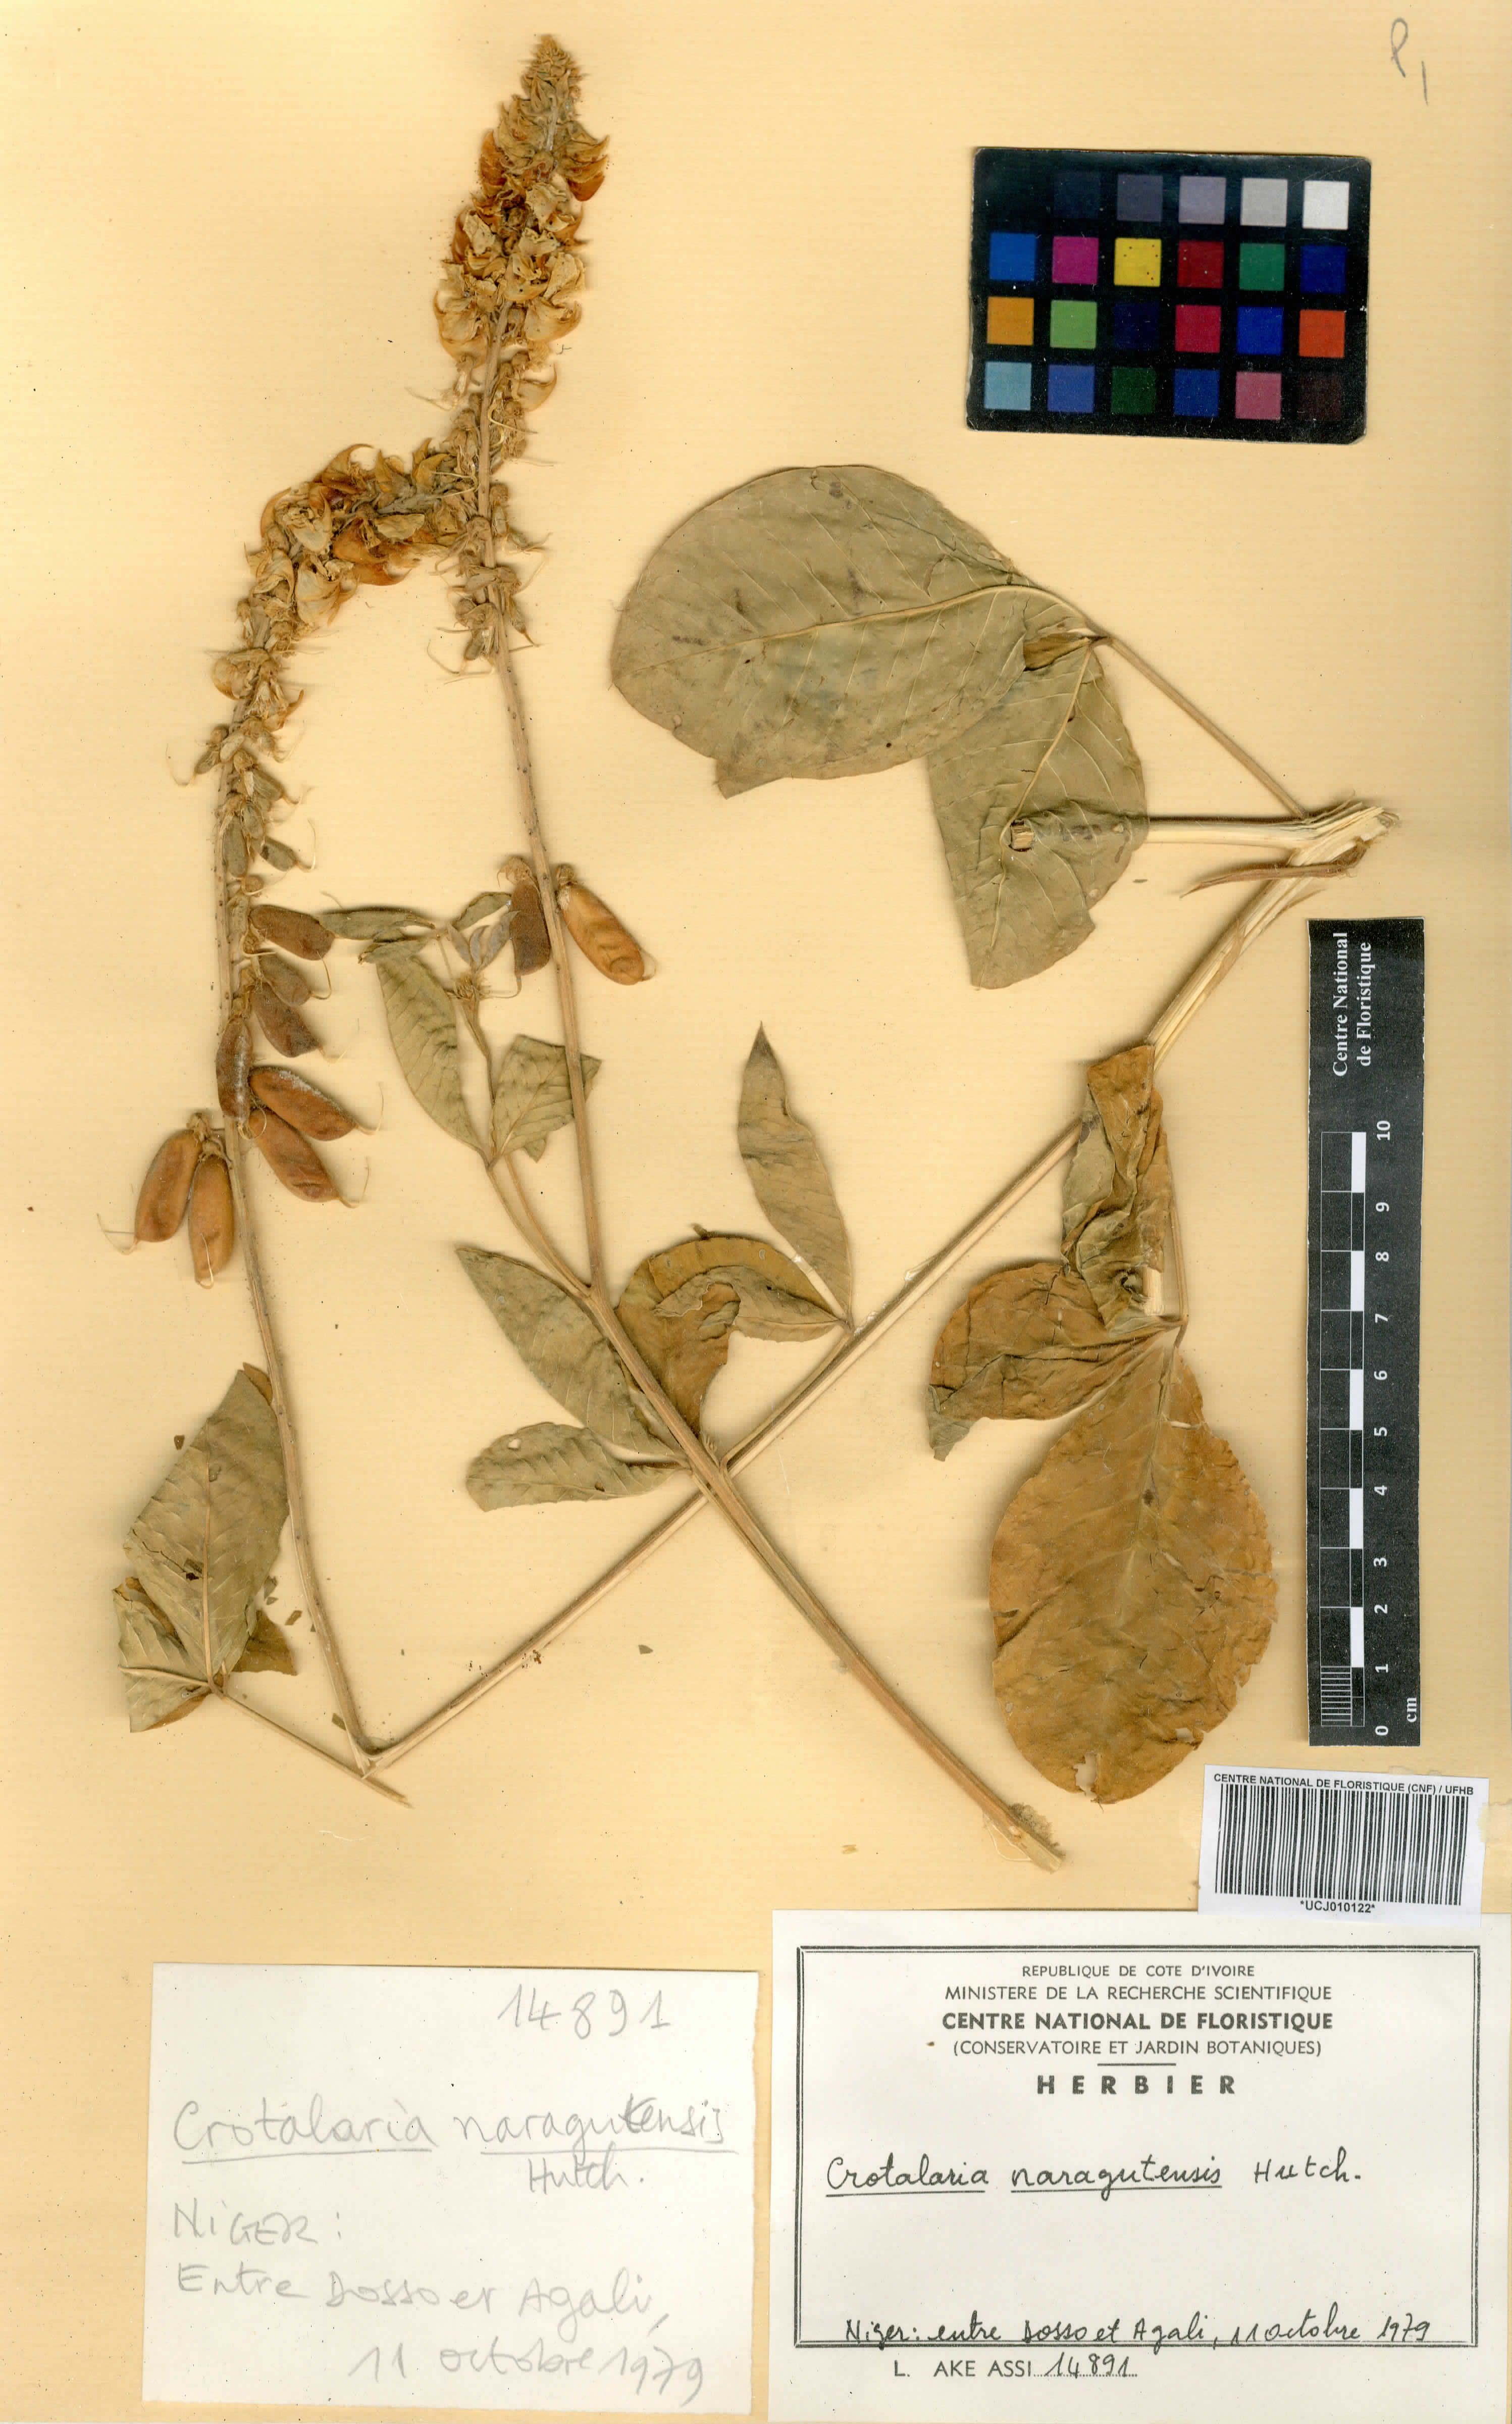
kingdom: Plantae
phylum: Tracheophyta
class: Magnoliopsida
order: Fabales
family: Fabaceae
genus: Crotalaria
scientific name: Crotalaria naragutensis
